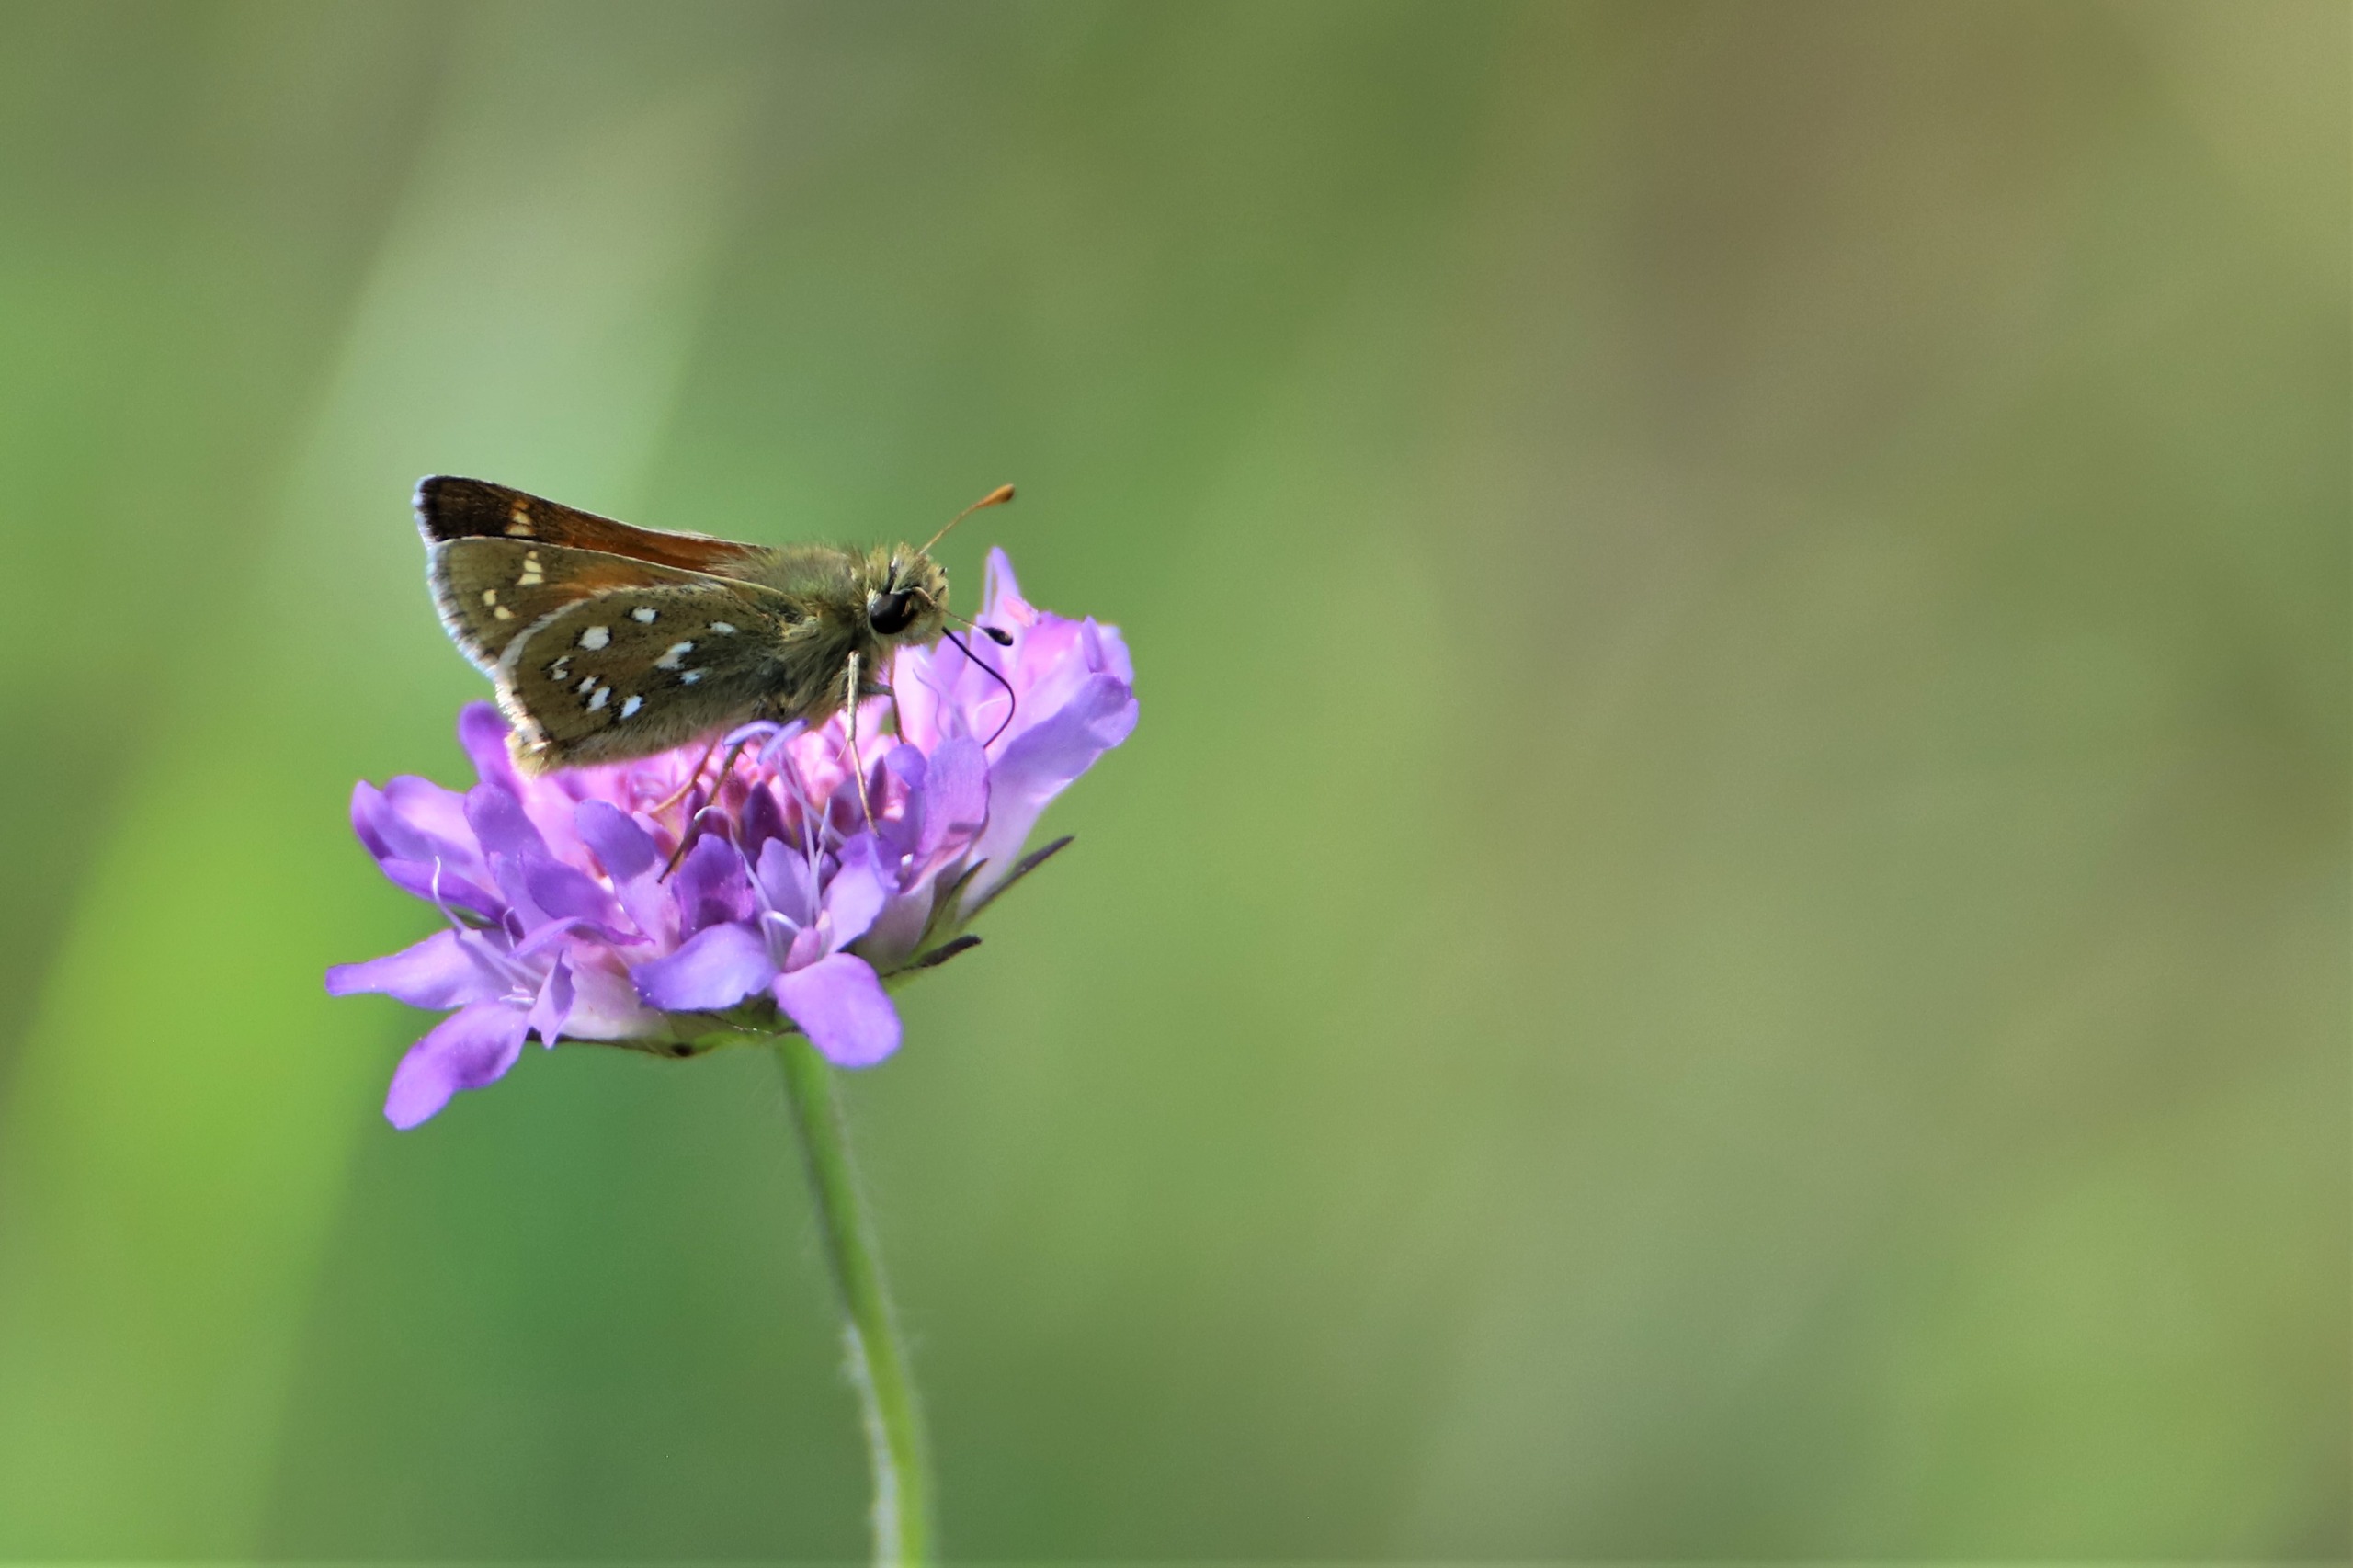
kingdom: Animalia
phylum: Arthropoda
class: Insecta
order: Lepidoptera
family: Hesperiidae
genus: Hesperia
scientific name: Hesperia comma
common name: Kommabredpande
